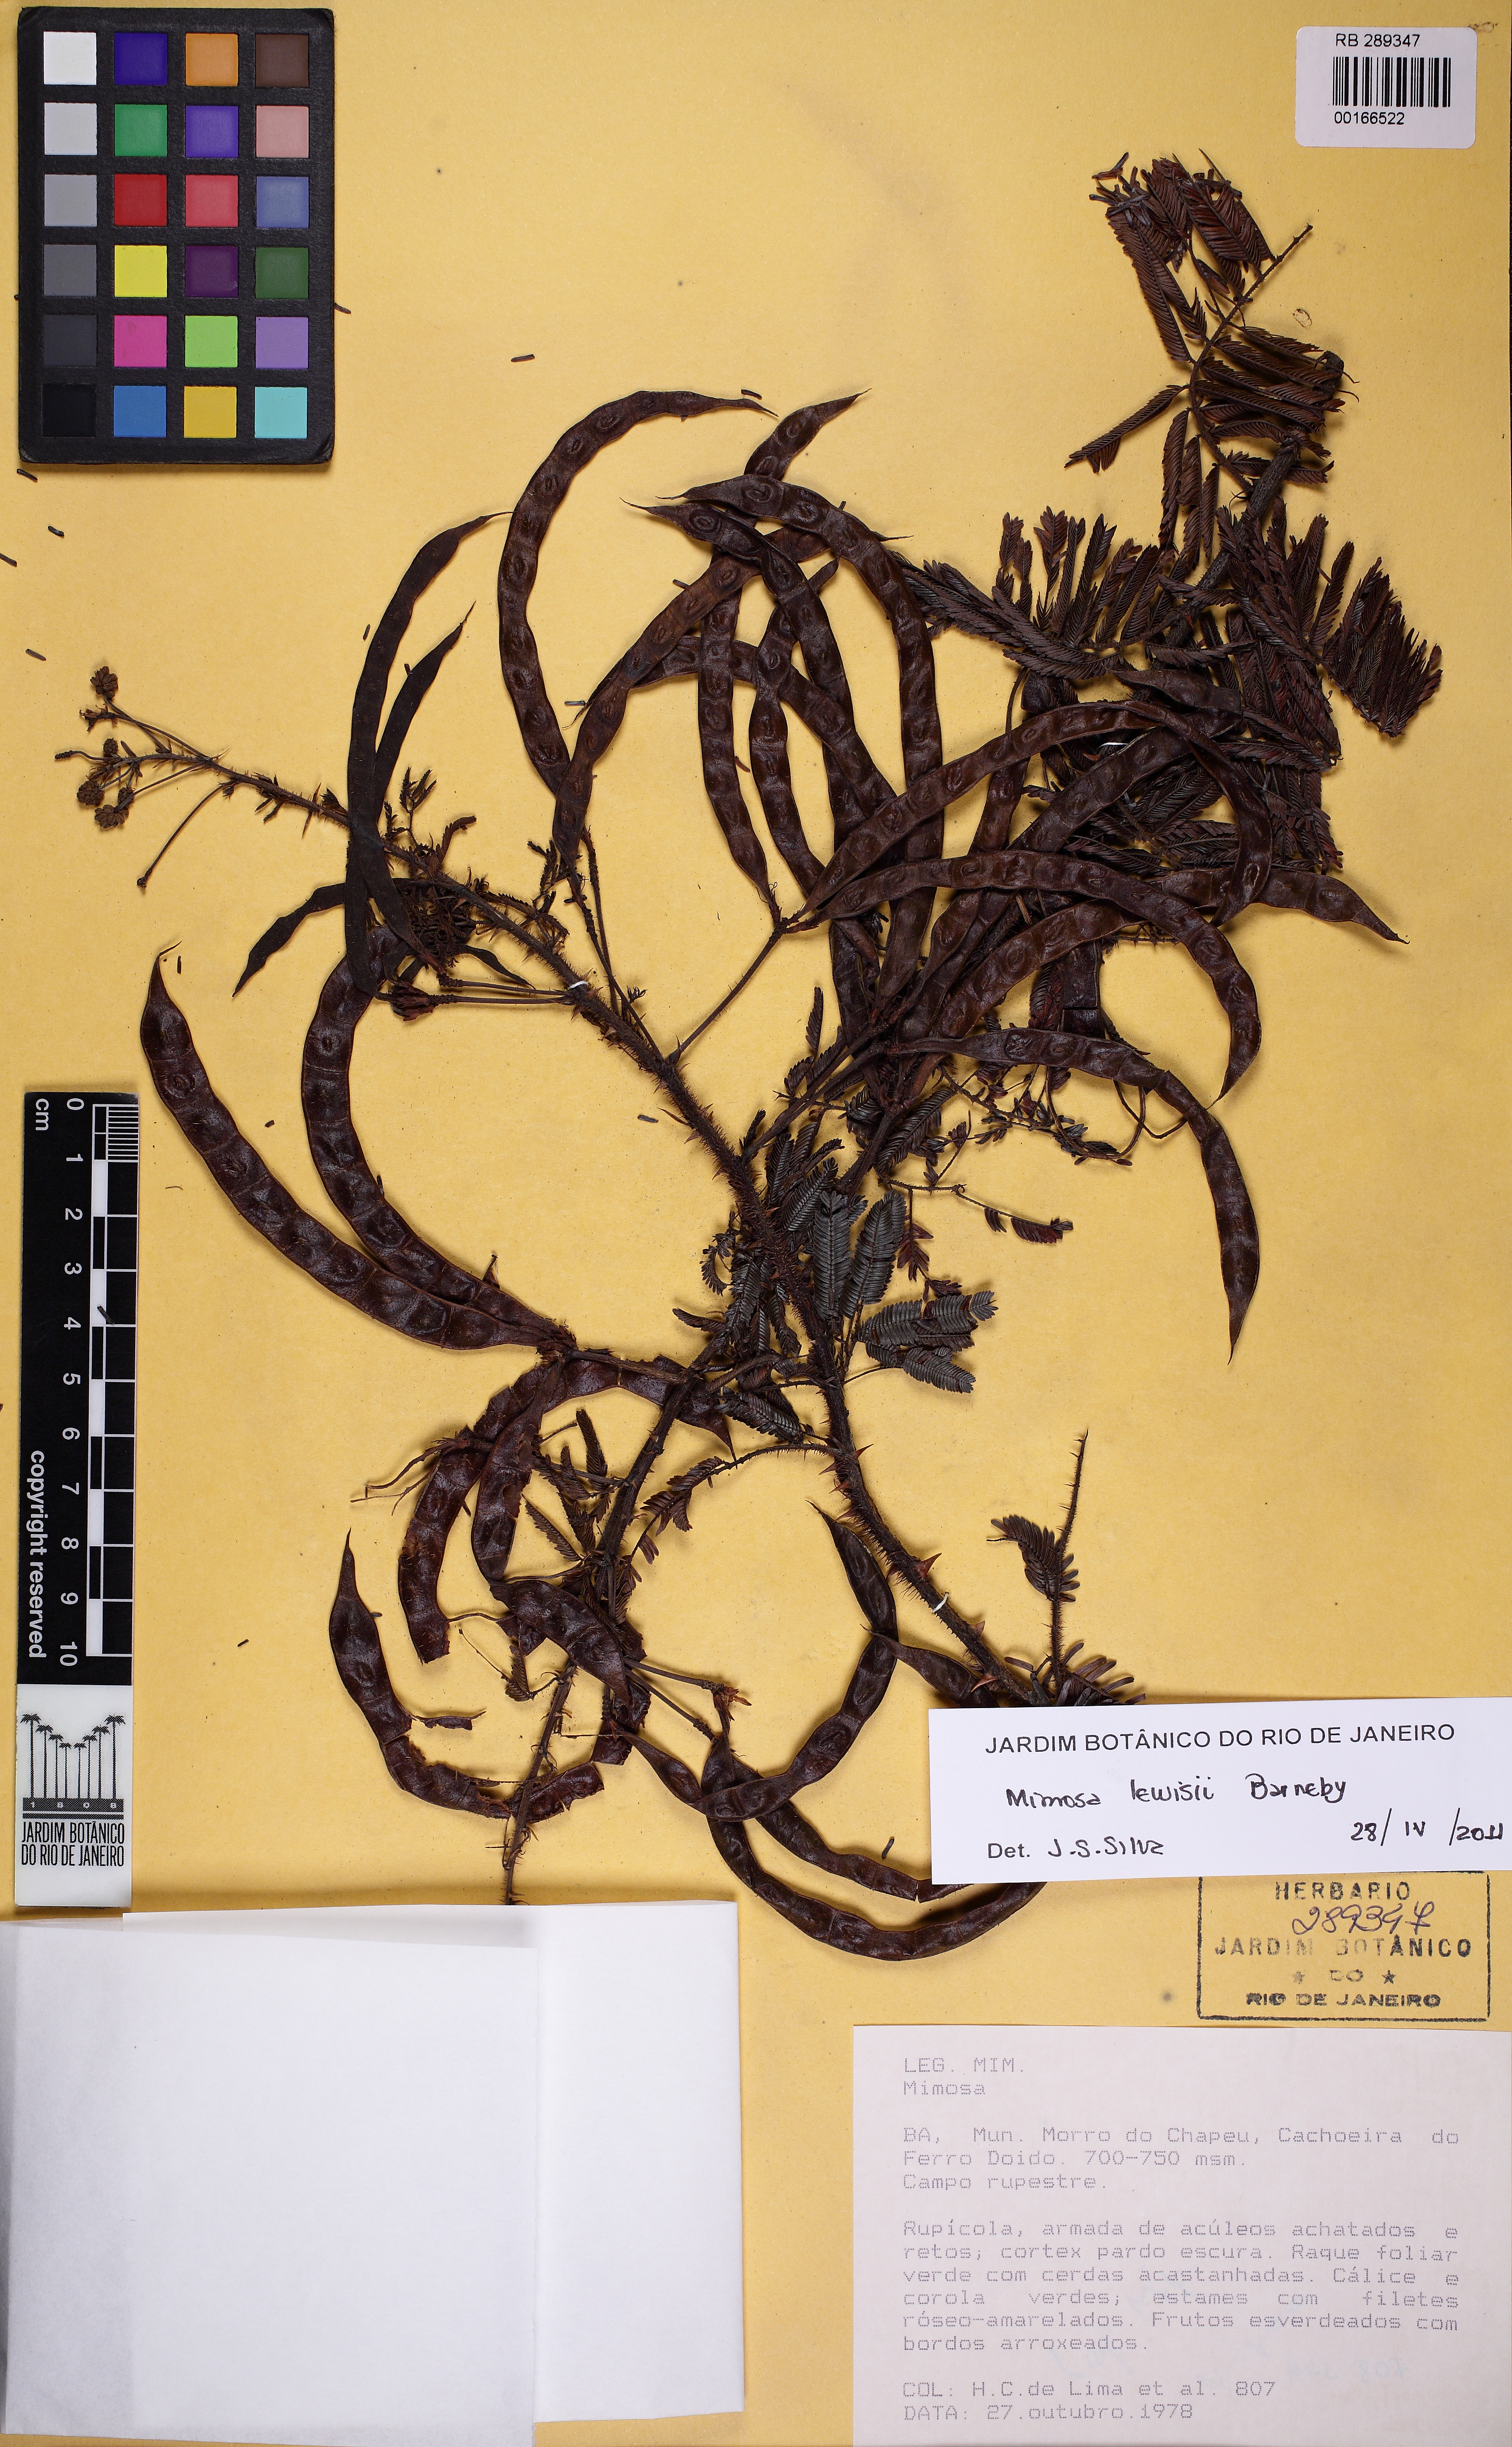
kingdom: Plantae
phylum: Tracheophyta
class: Magnoliopsida
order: Fabales
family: Fabaceae
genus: Mimosa
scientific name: Mimosa lewisii
